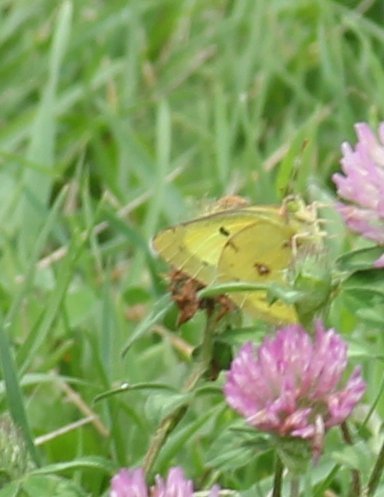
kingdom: Animalia
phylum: Arthropoda
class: Insecta
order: Lepidoptera
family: Pieridae
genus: Colias
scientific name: Colias philodice
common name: Clouded Sulphur
